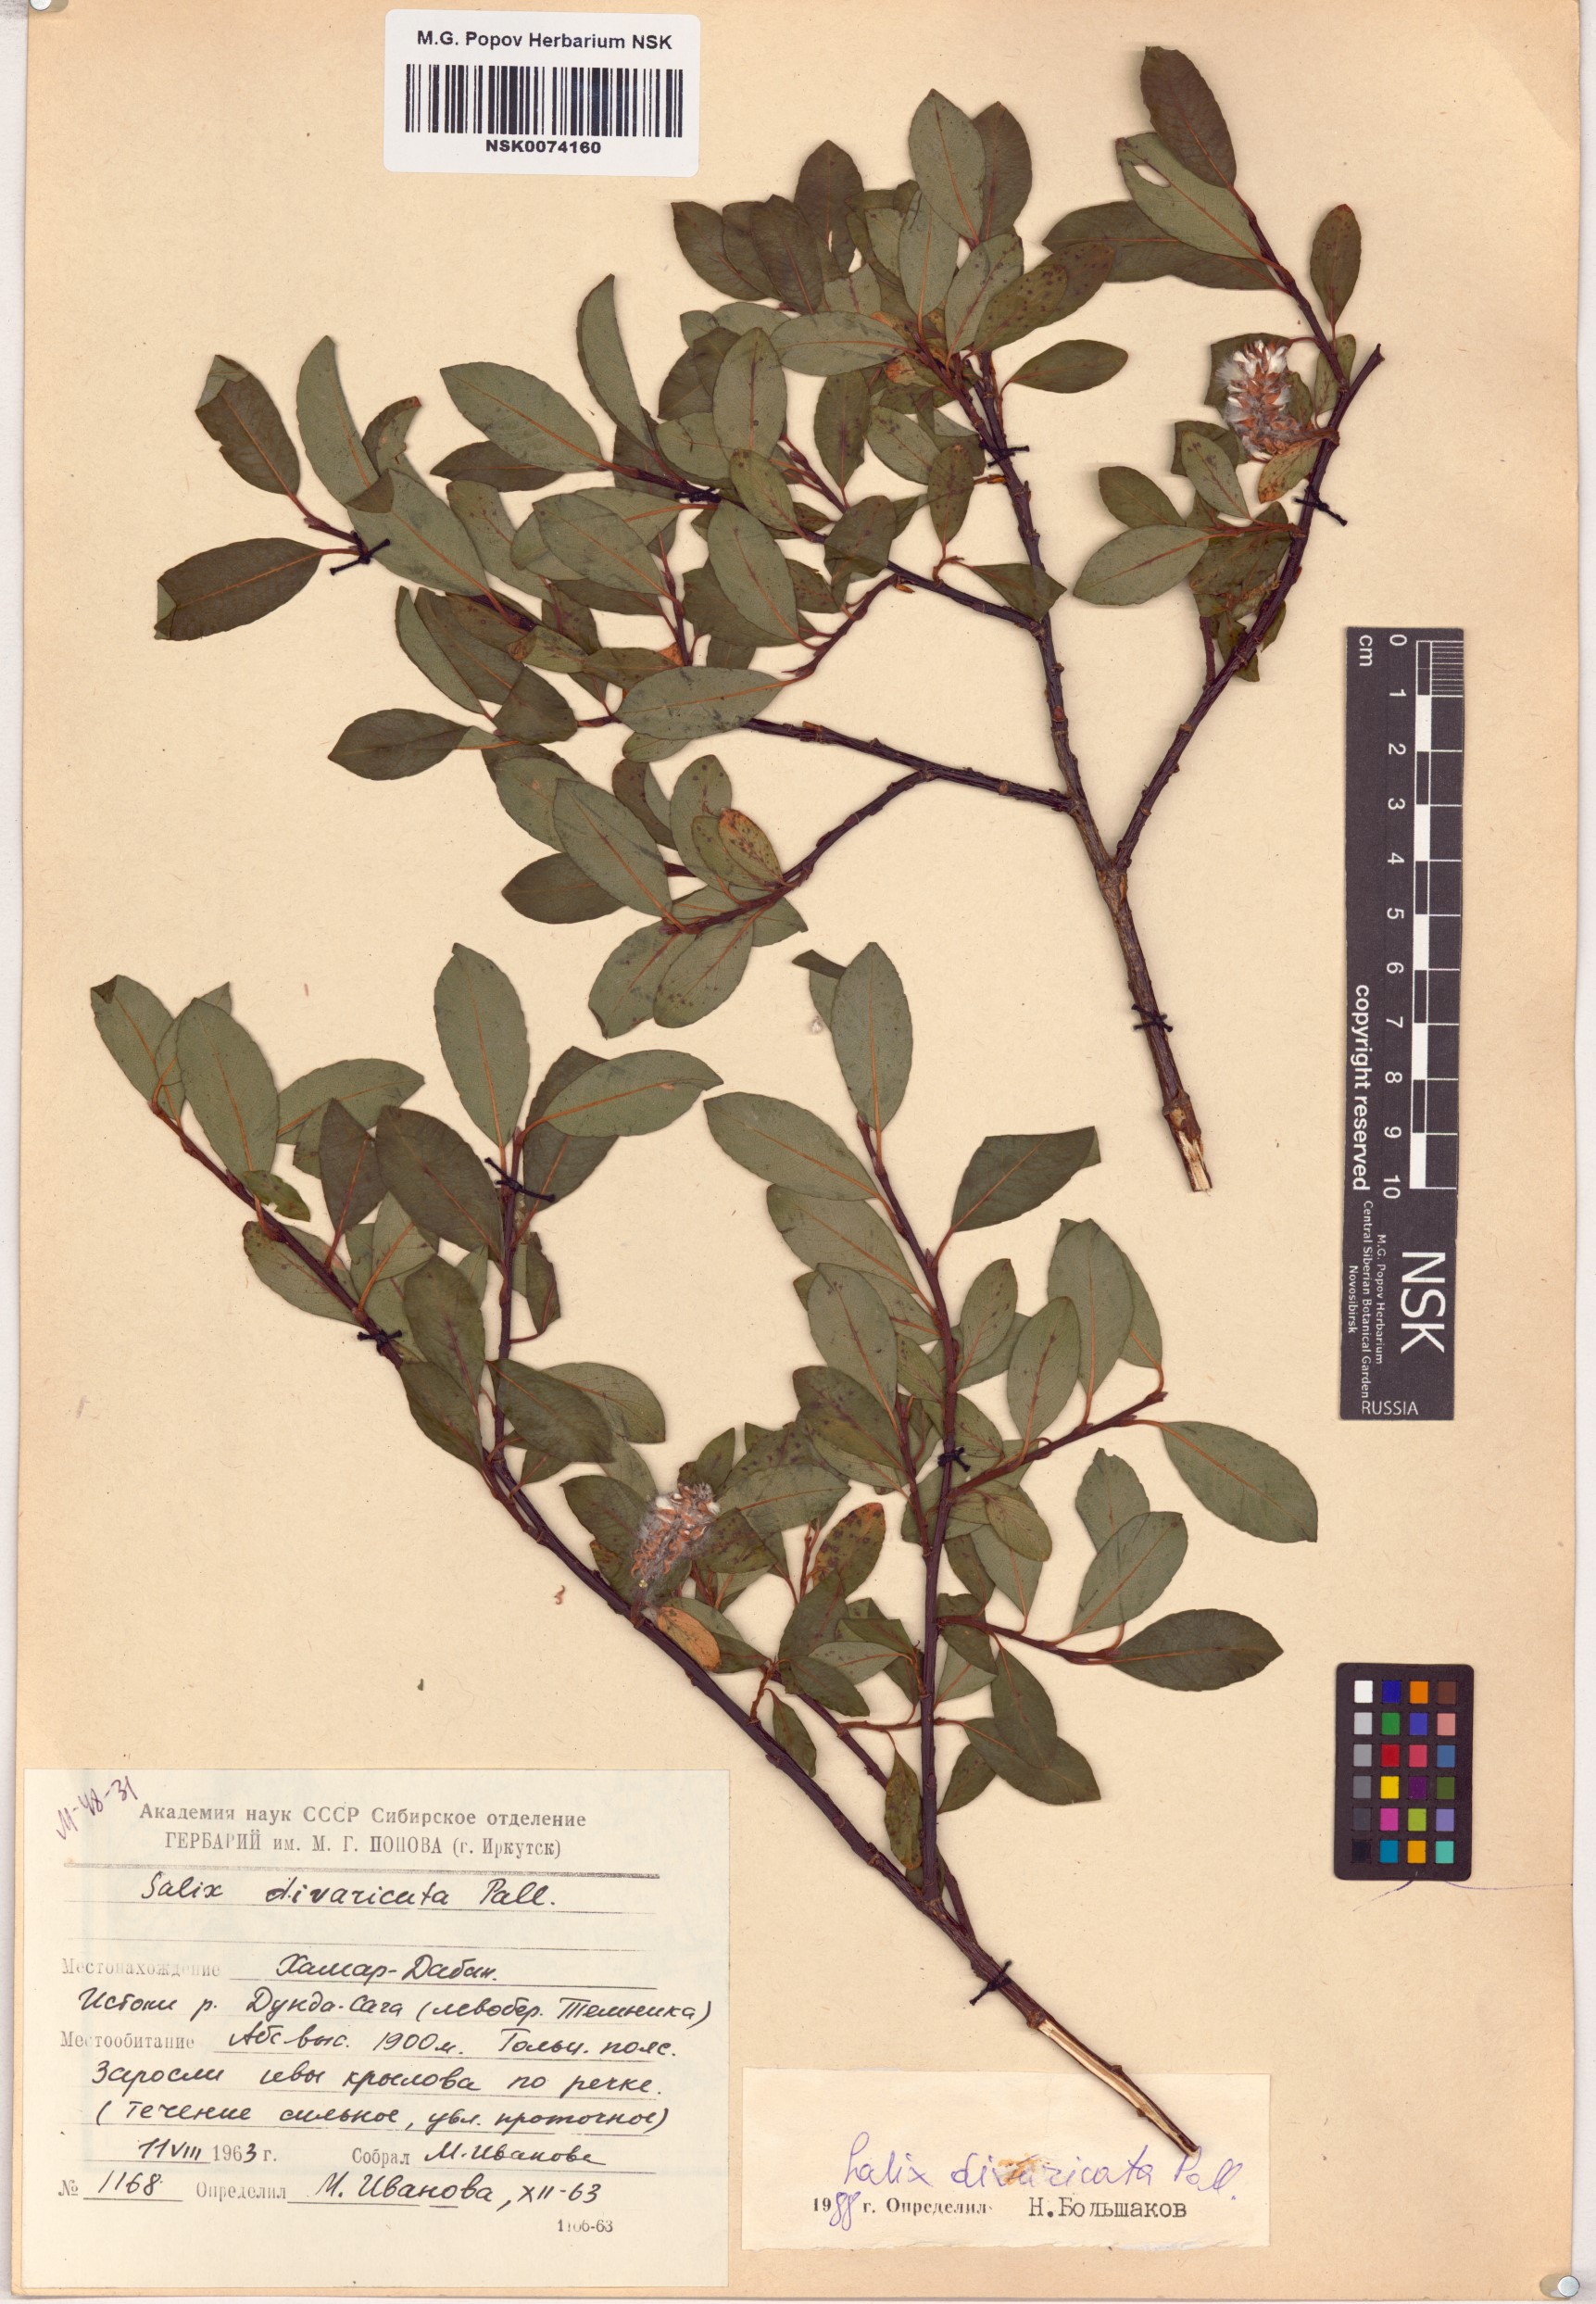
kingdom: Plantae
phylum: Tracheophyta
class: Magnoliopsida
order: Malpighiales
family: Salicaceae
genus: Salix
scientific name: Salix divaricata
